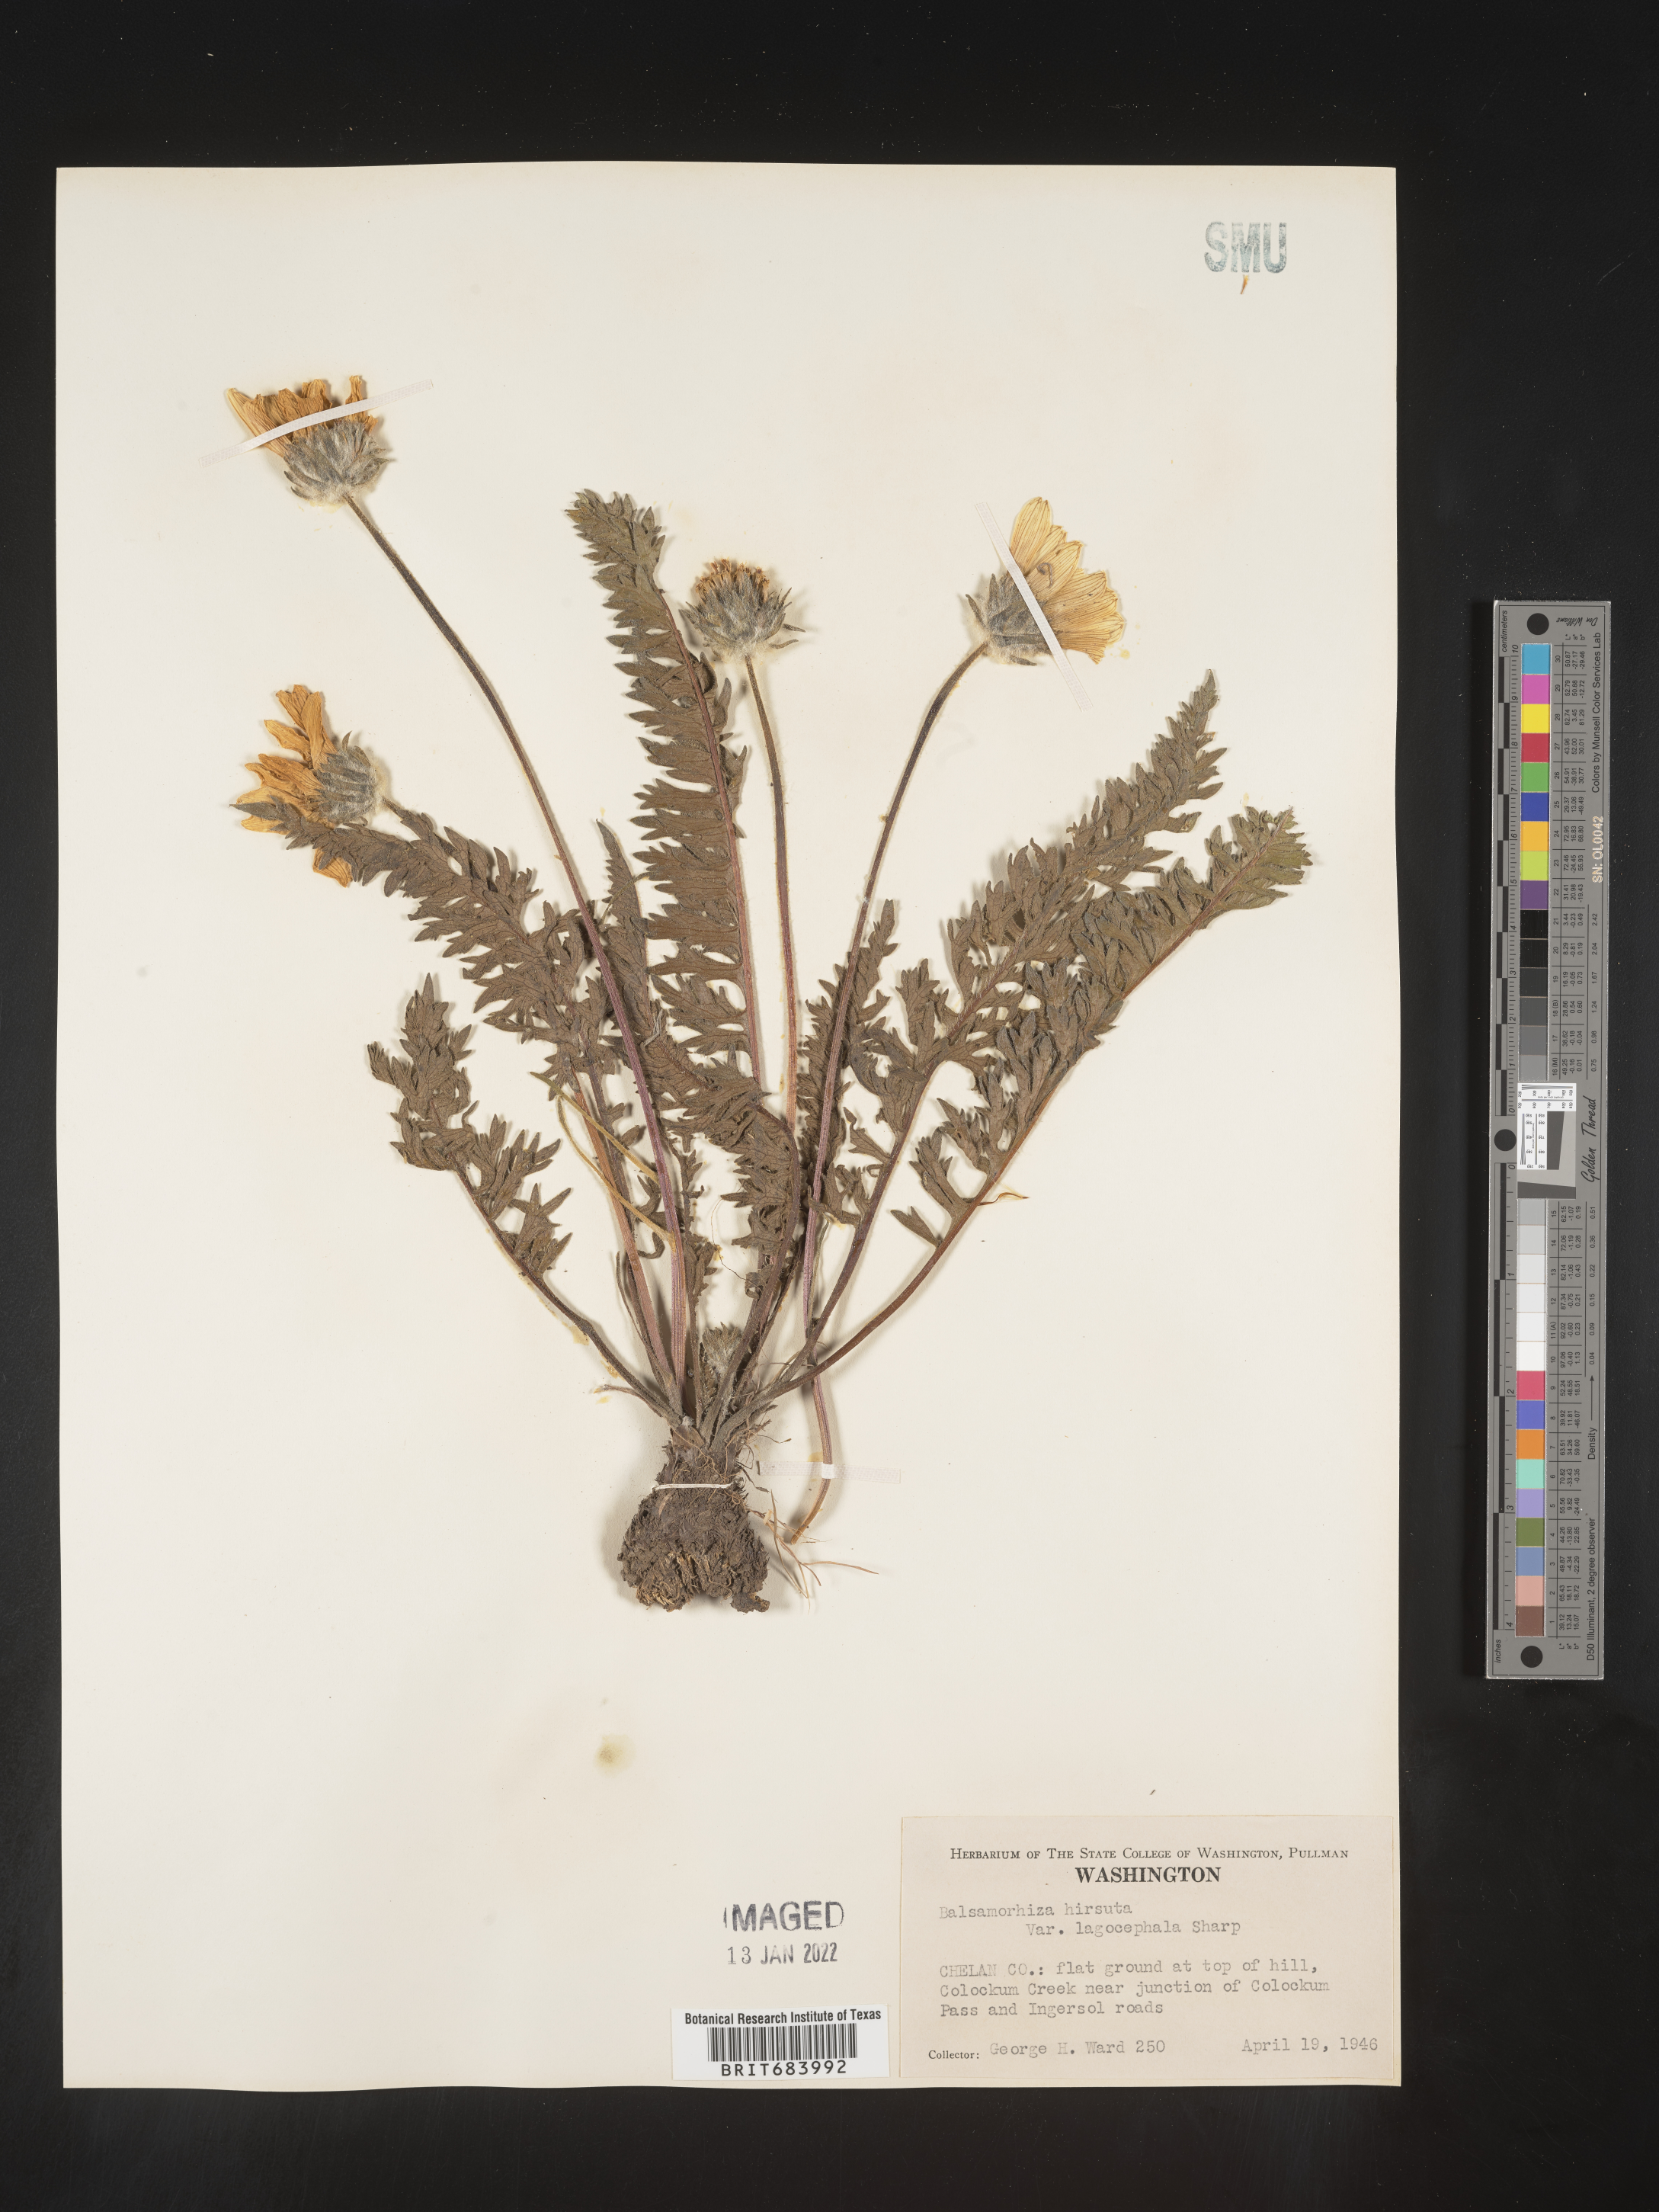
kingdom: Plantae
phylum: Tracheophyta
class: Magnoliopsida
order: Asterales
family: Asteraceae
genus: Balsamorhiza
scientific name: Balsamorhiza hookeri
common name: Hooker's balsamroot
